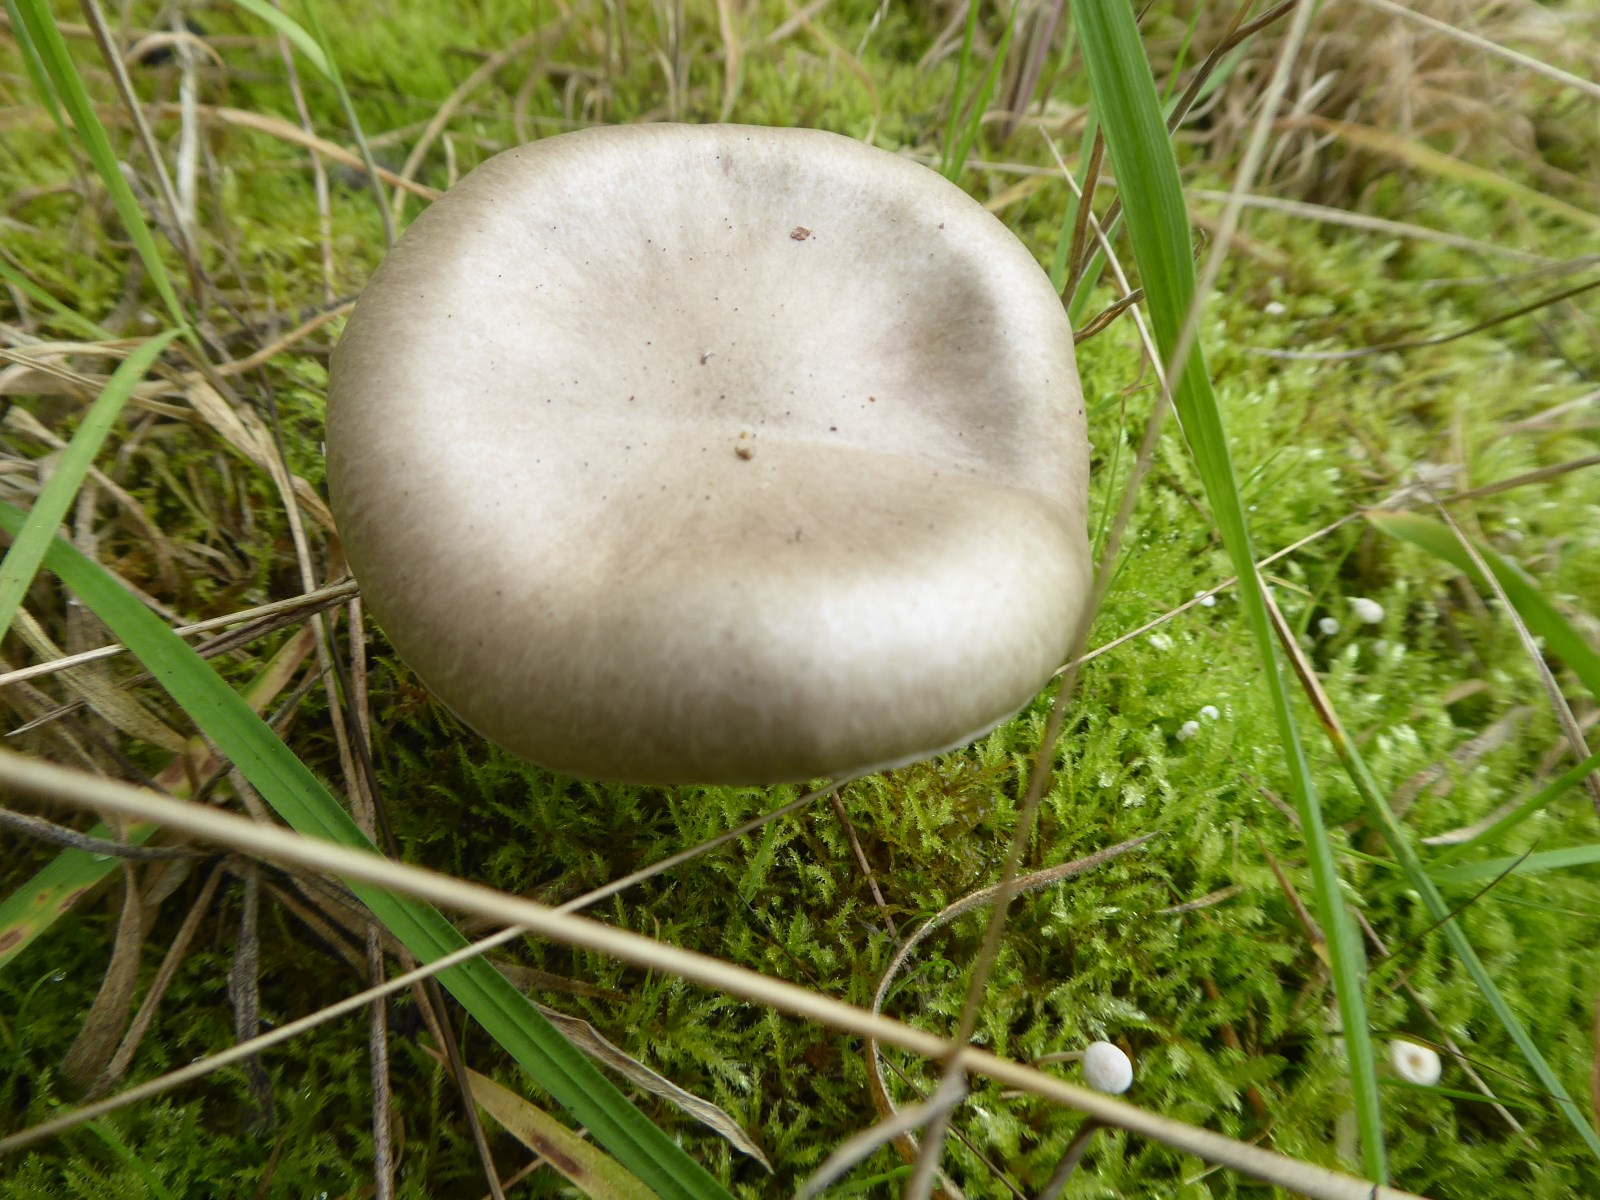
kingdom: Fungi
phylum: Basidiomycota
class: Agaricomycetes
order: Agaricales
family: Hygrophoraceae
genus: Hygrophorus
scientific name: Hygrophorus agathosmus
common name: vellugtende sneglehat
